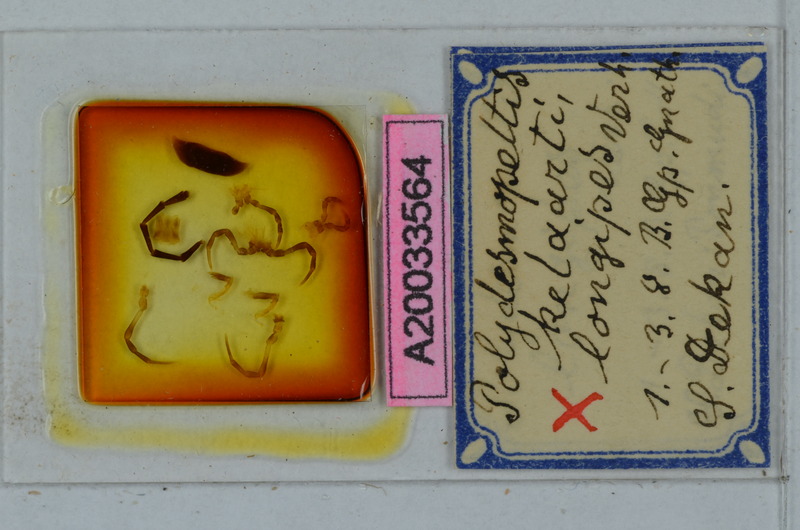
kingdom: Animalia
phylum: Arthropoda
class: Diplopoda
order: Polydesmida
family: Paradoxosomatidae
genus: Chondromorpha
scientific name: Chondromorpha kelaarti
